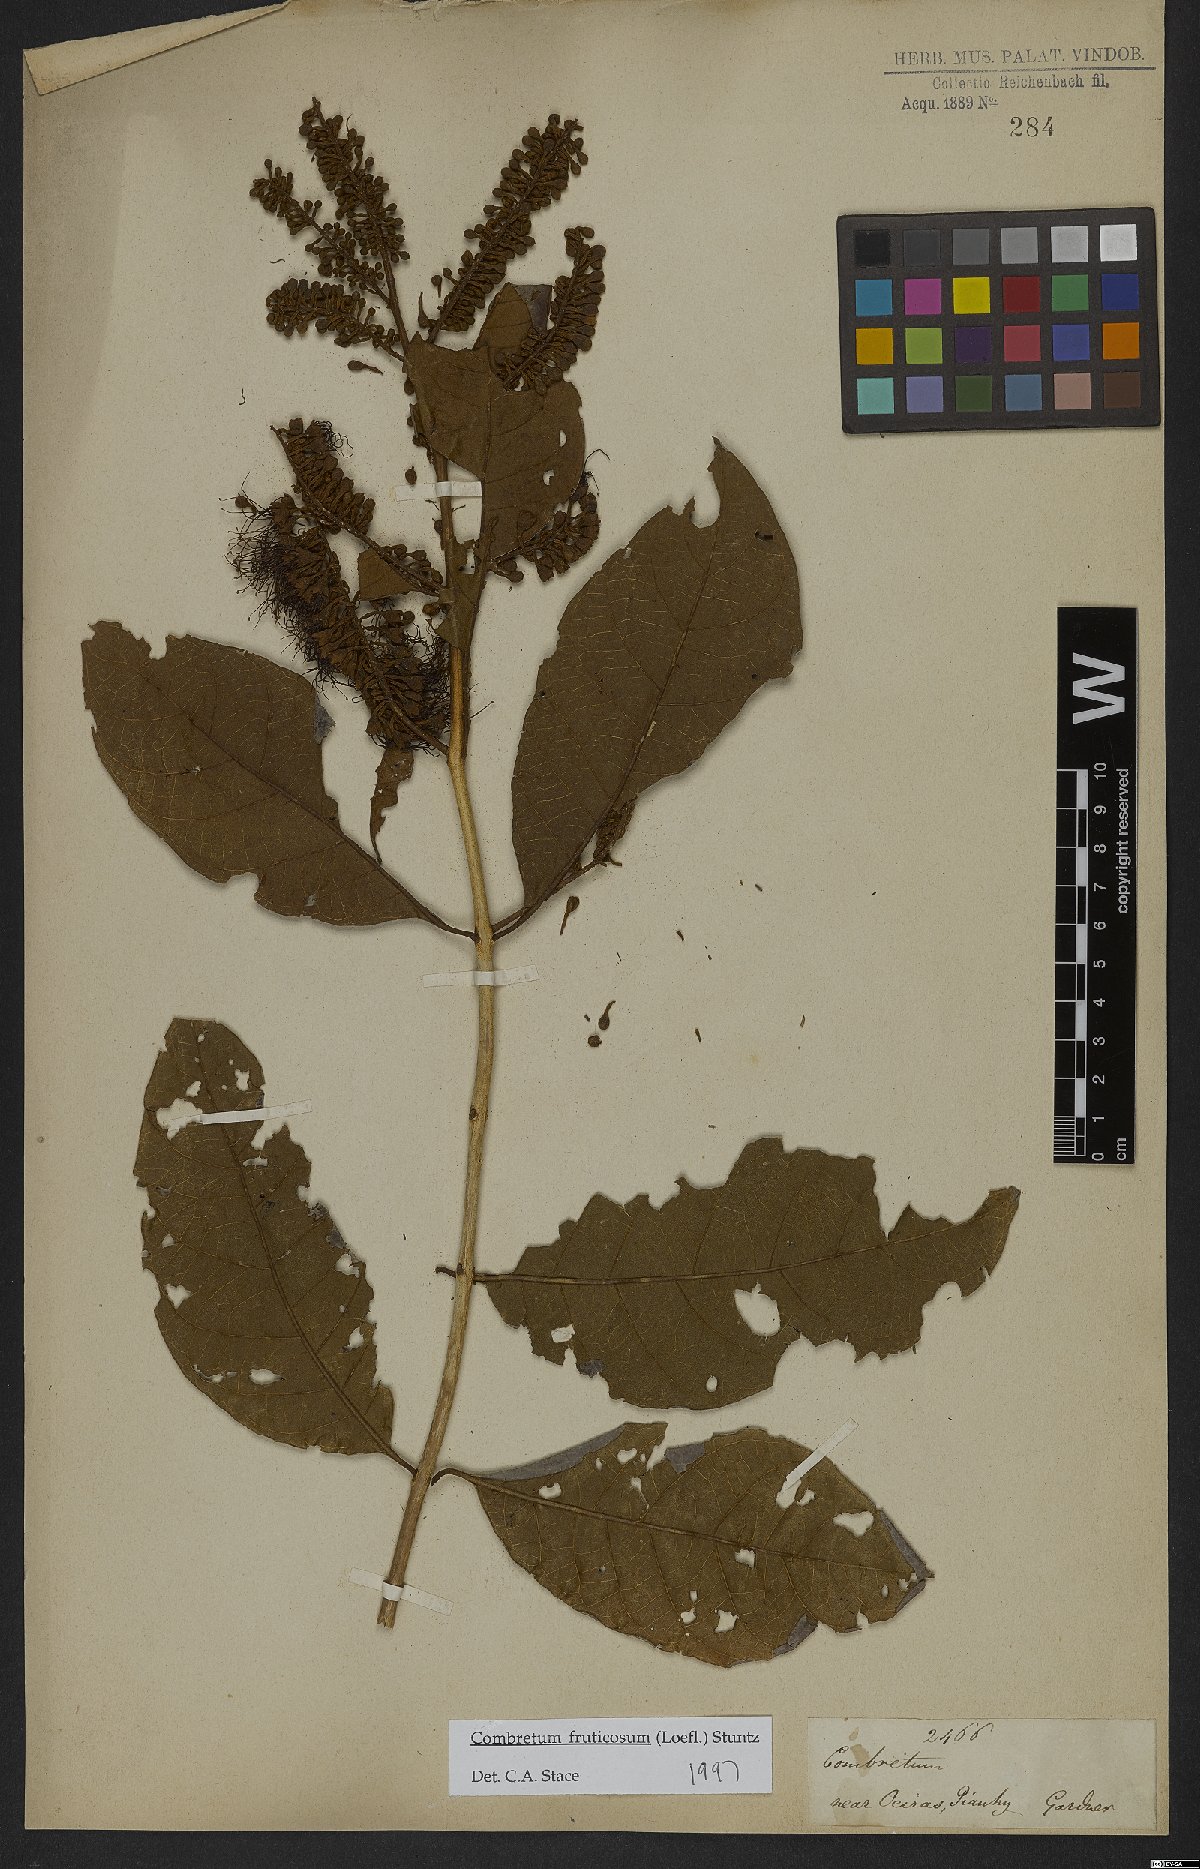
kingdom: Plantae
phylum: Tracheophyta
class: Magnoliopsida
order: Myrtales
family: Combretaceae
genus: Combretum
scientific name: Combretum fruticosum
